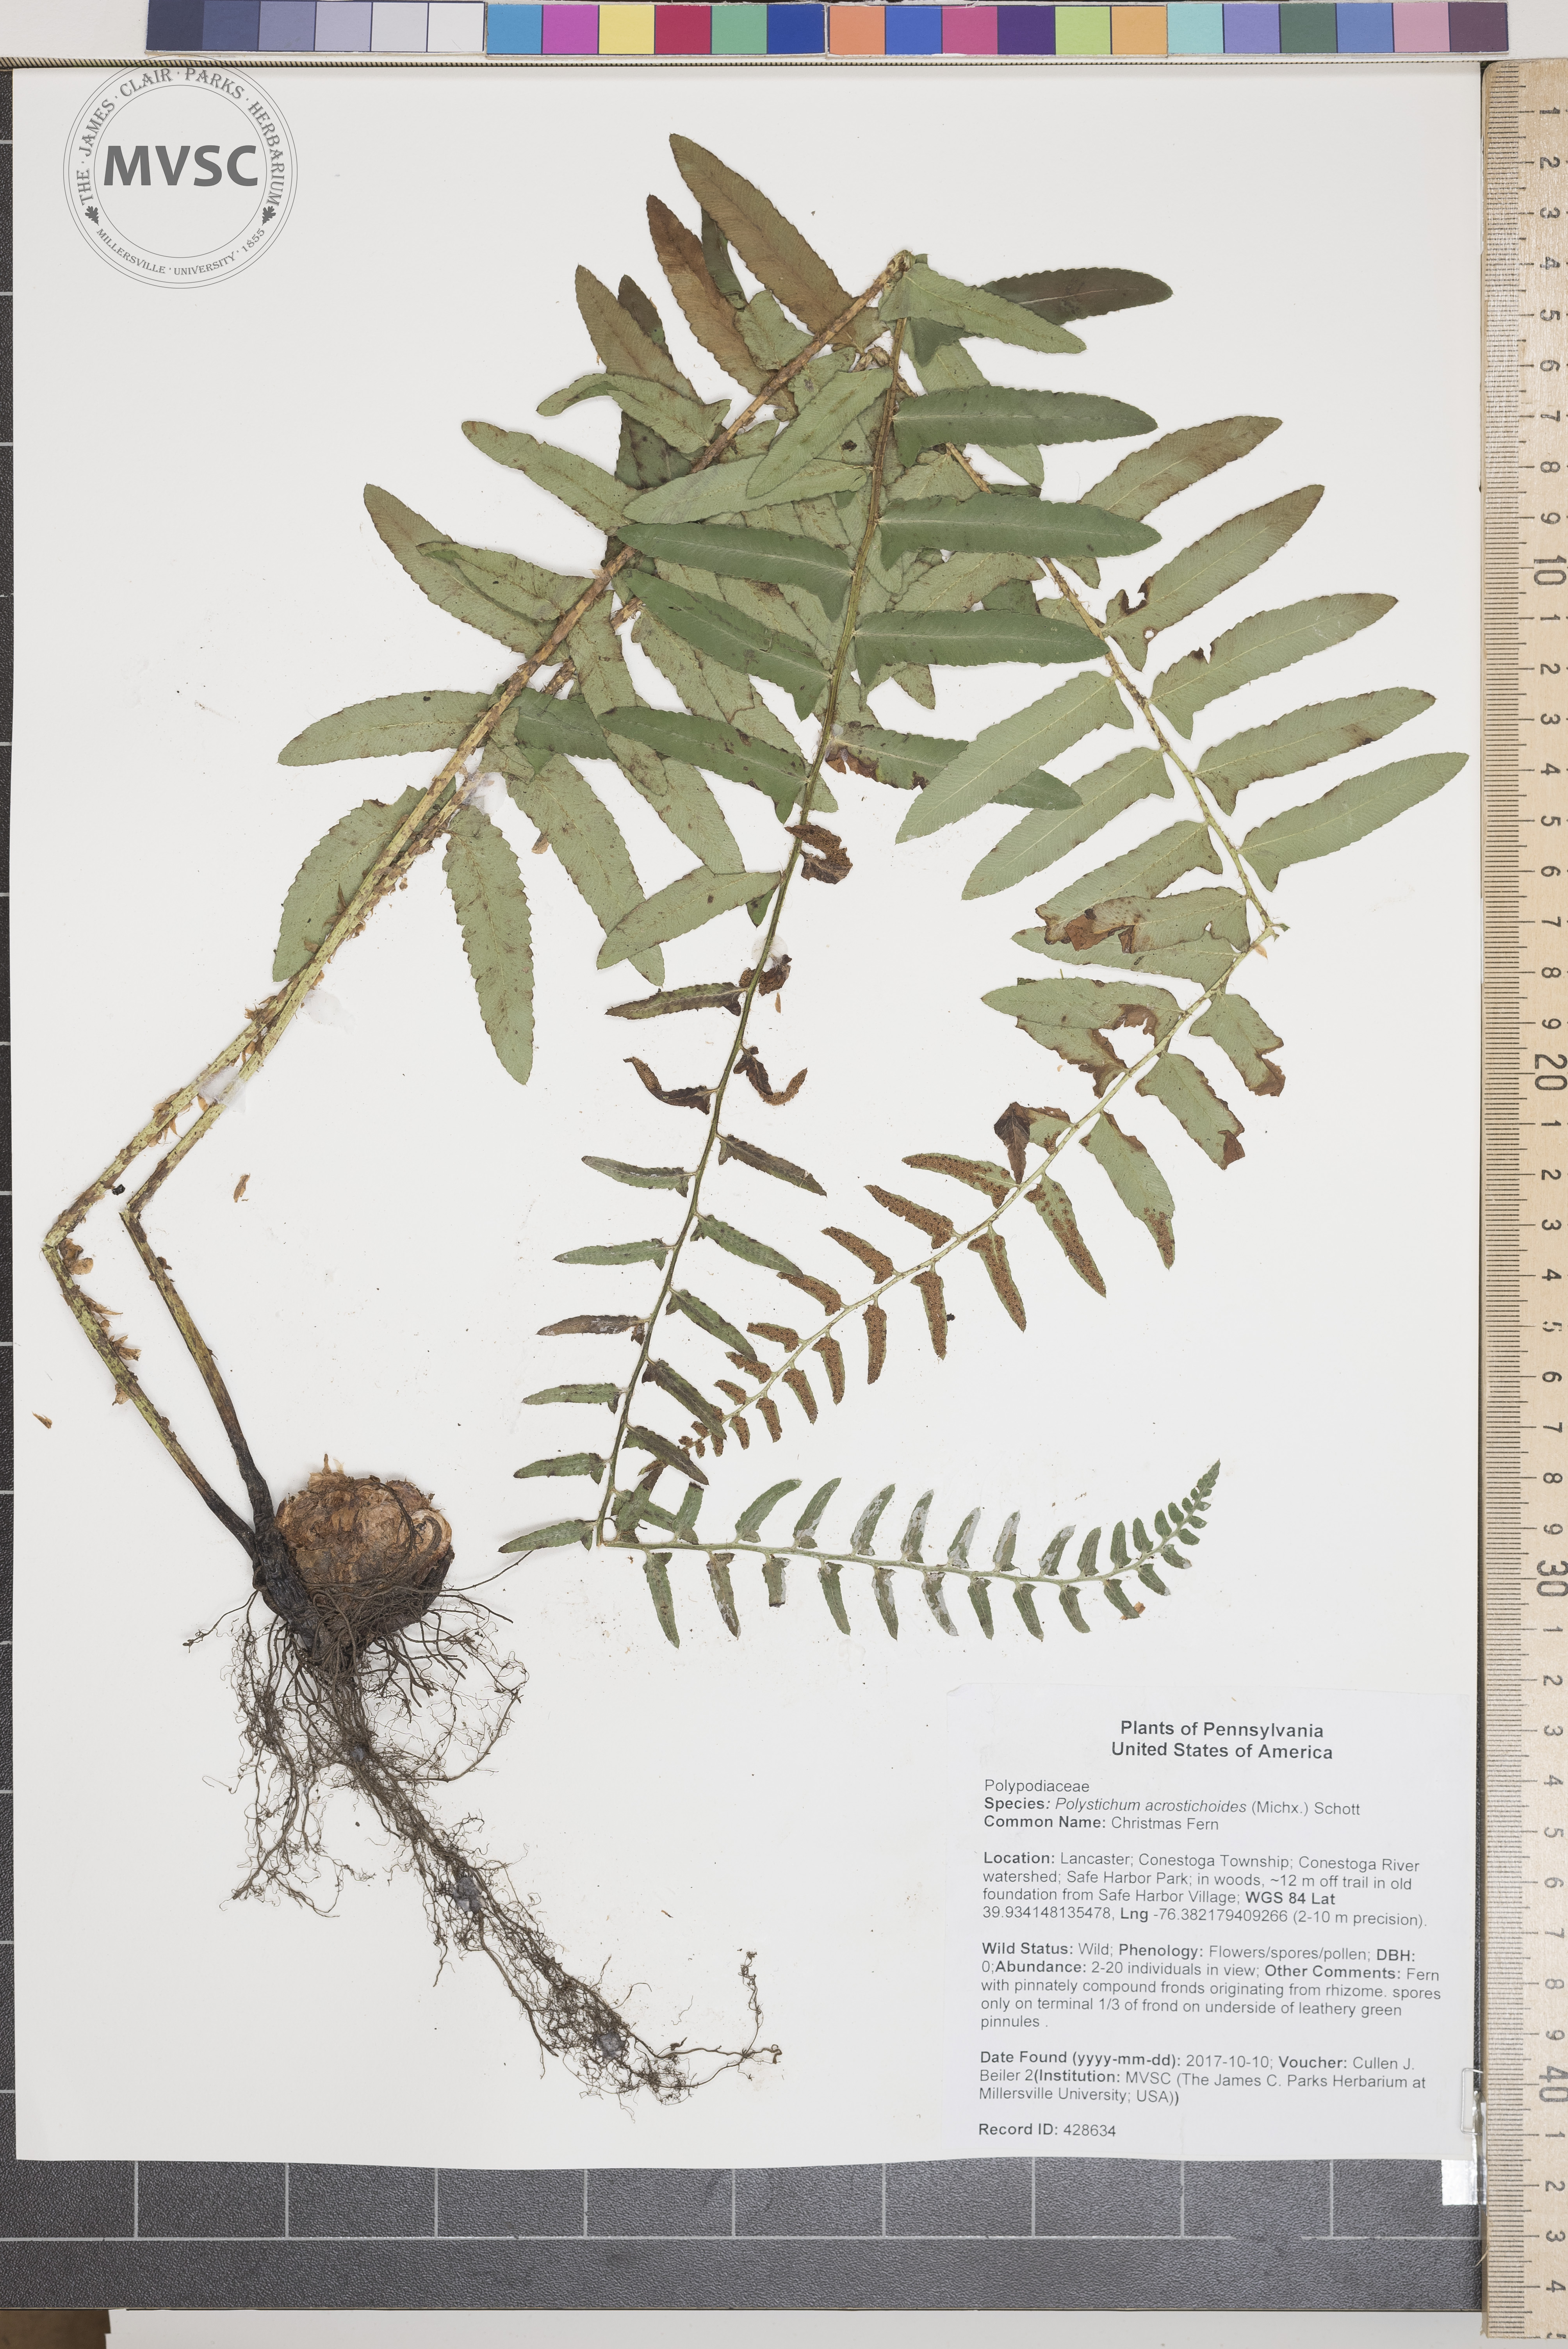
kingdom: Plantae
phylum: Tracheophyta
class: Polypodiopsida
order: Polypodiales
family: Dryopteridaceae
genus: Polystichum
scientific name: Polystichum acrostichoides
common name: Christmas Fern
